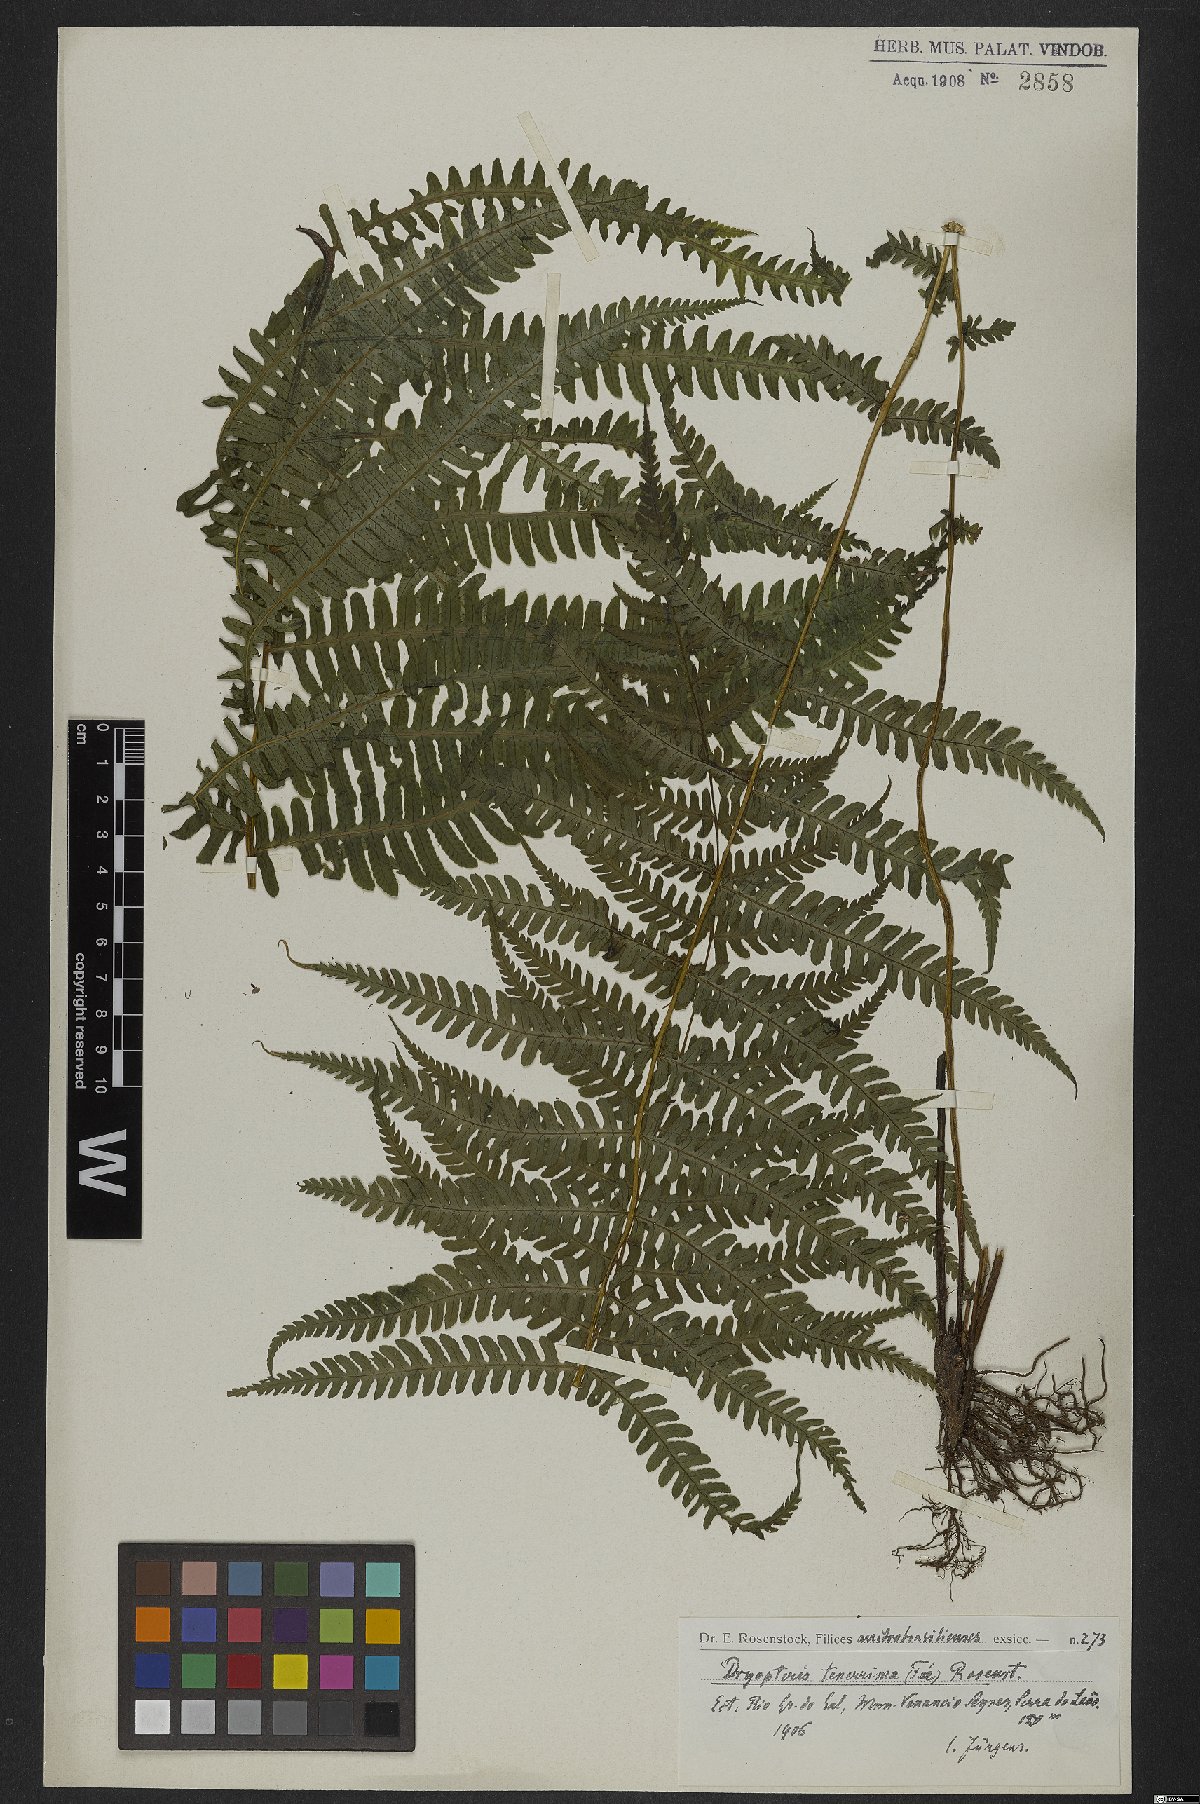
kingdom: Plantae
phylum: Tracheophyta
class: Polypodiopsida
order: Polypodiales
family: Thelypteridaceae
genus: Amauropelta
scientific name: Amauropelta tenerrima
